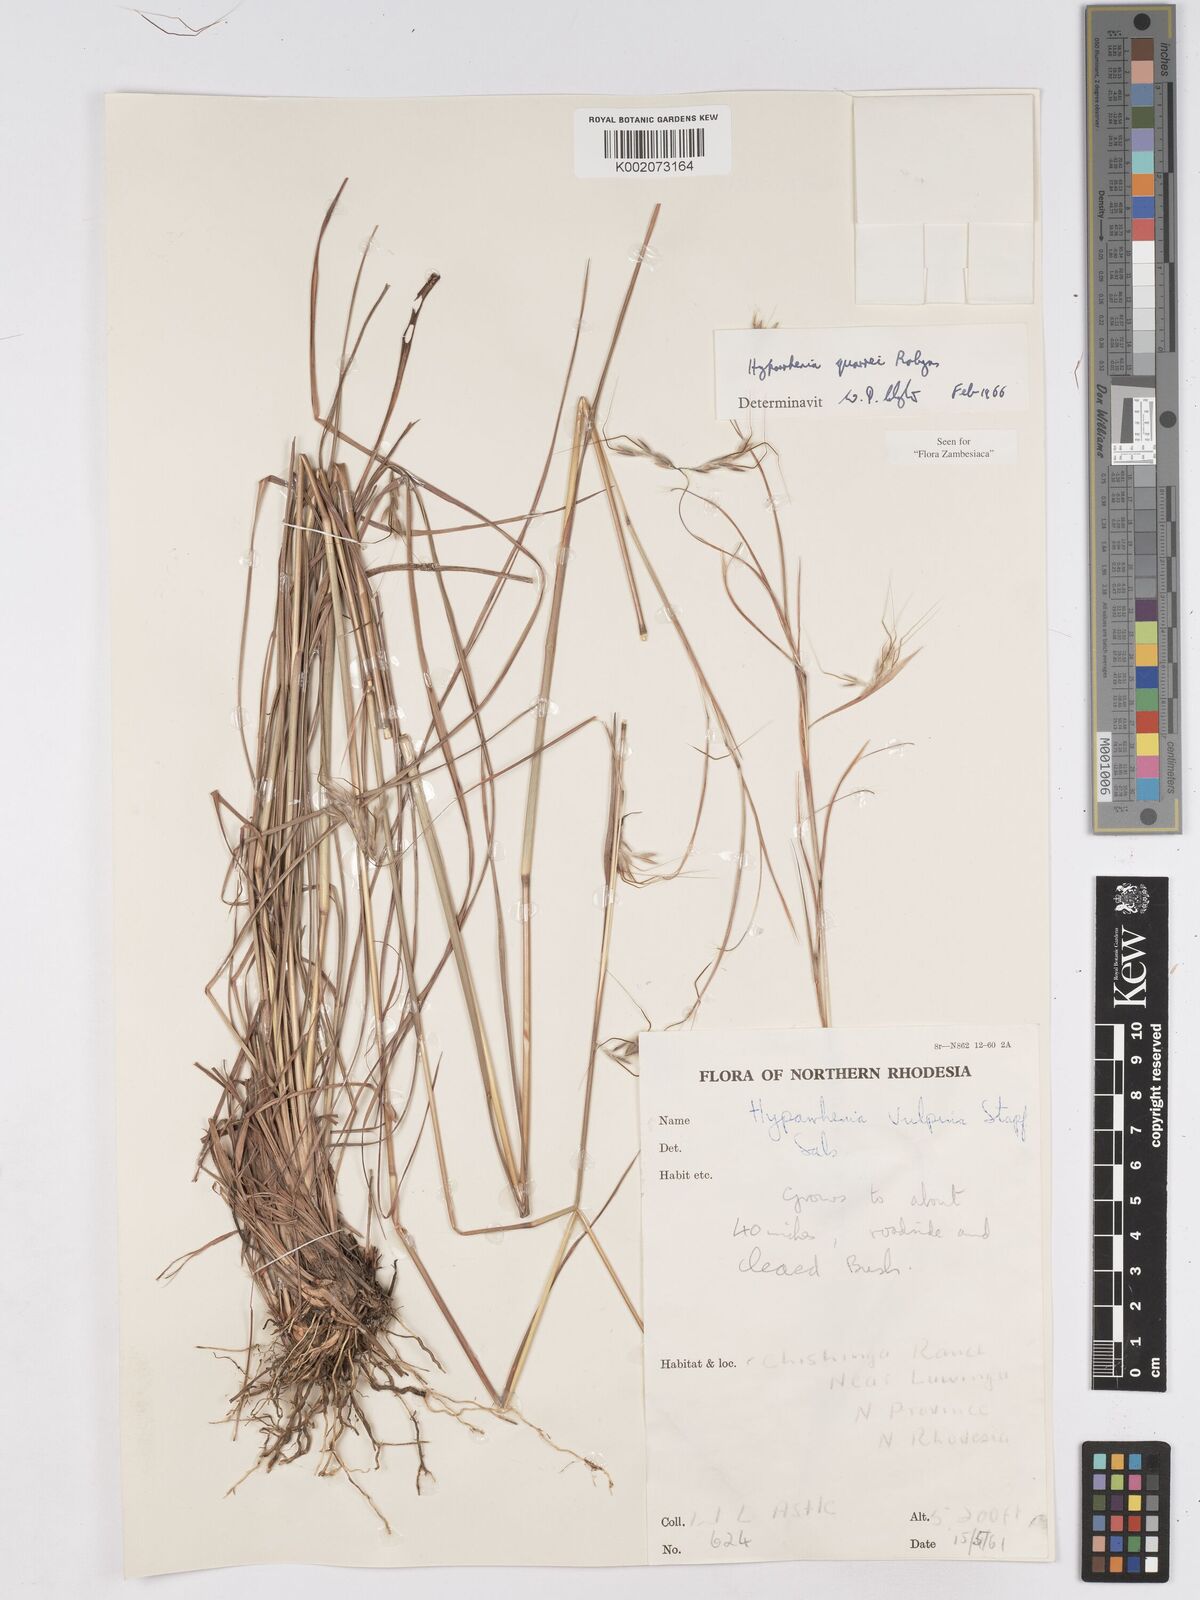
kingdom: Plantae
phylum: Tracheophyta
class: Liliopsida
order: Poales
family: Poaceae
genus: Hyparrhenia
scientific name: Hyparrhenia quarrei
